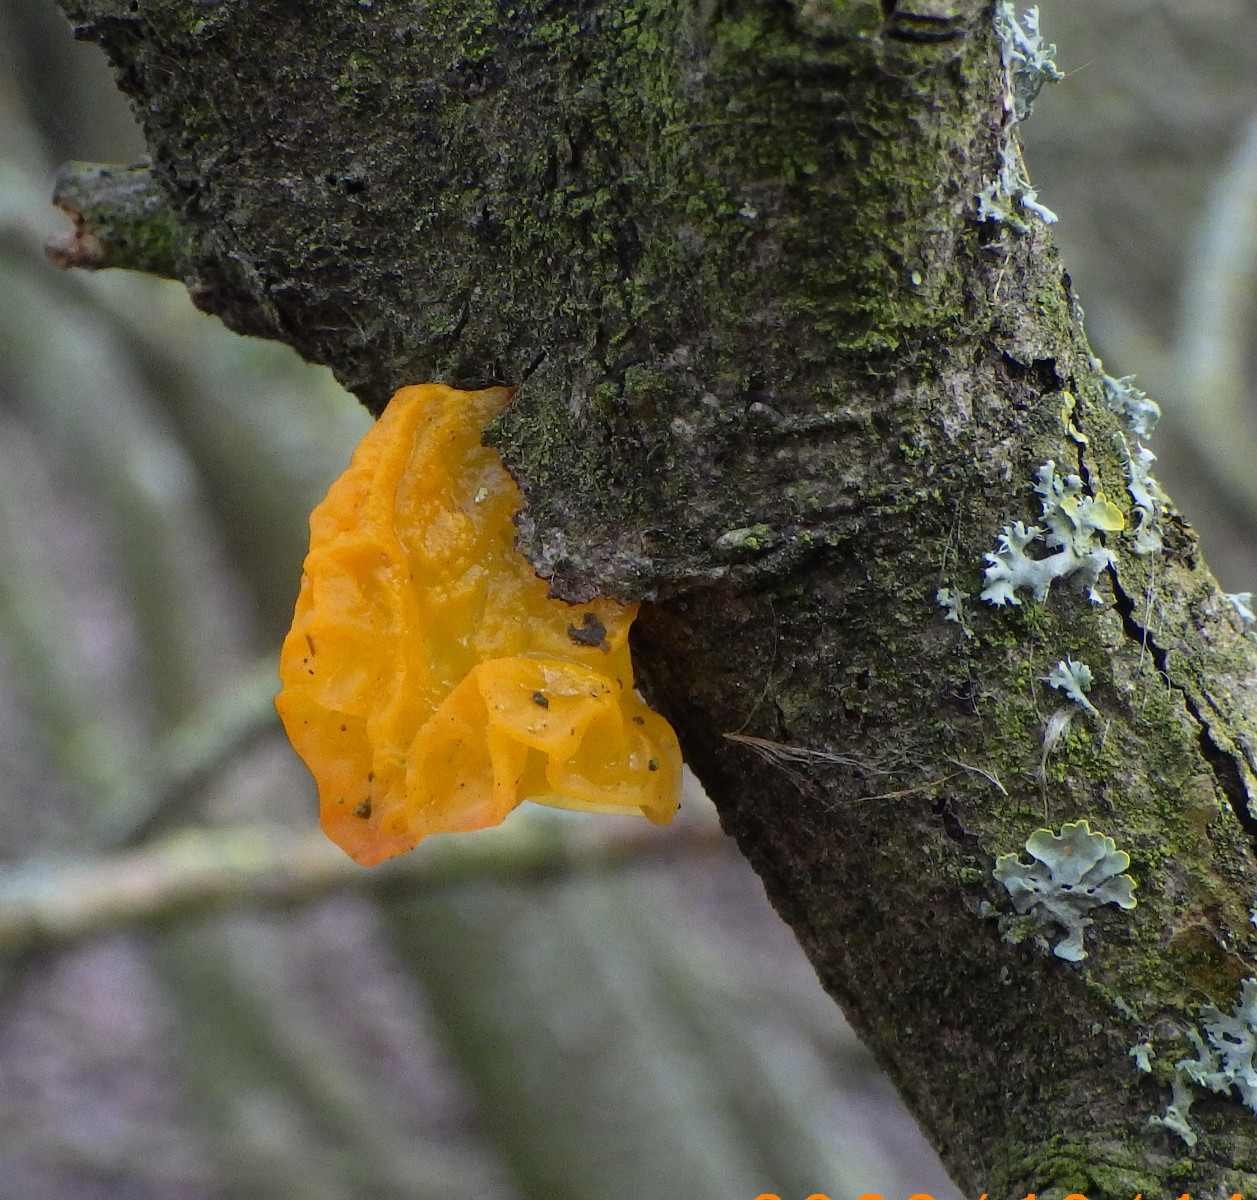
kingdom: Fungi
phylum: Basidiomycota
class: Tremellomycetes
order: Tremellales
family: Tremellaceae
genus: Tremella
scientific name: Tremella mesenterica
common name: gul bævresvamp
